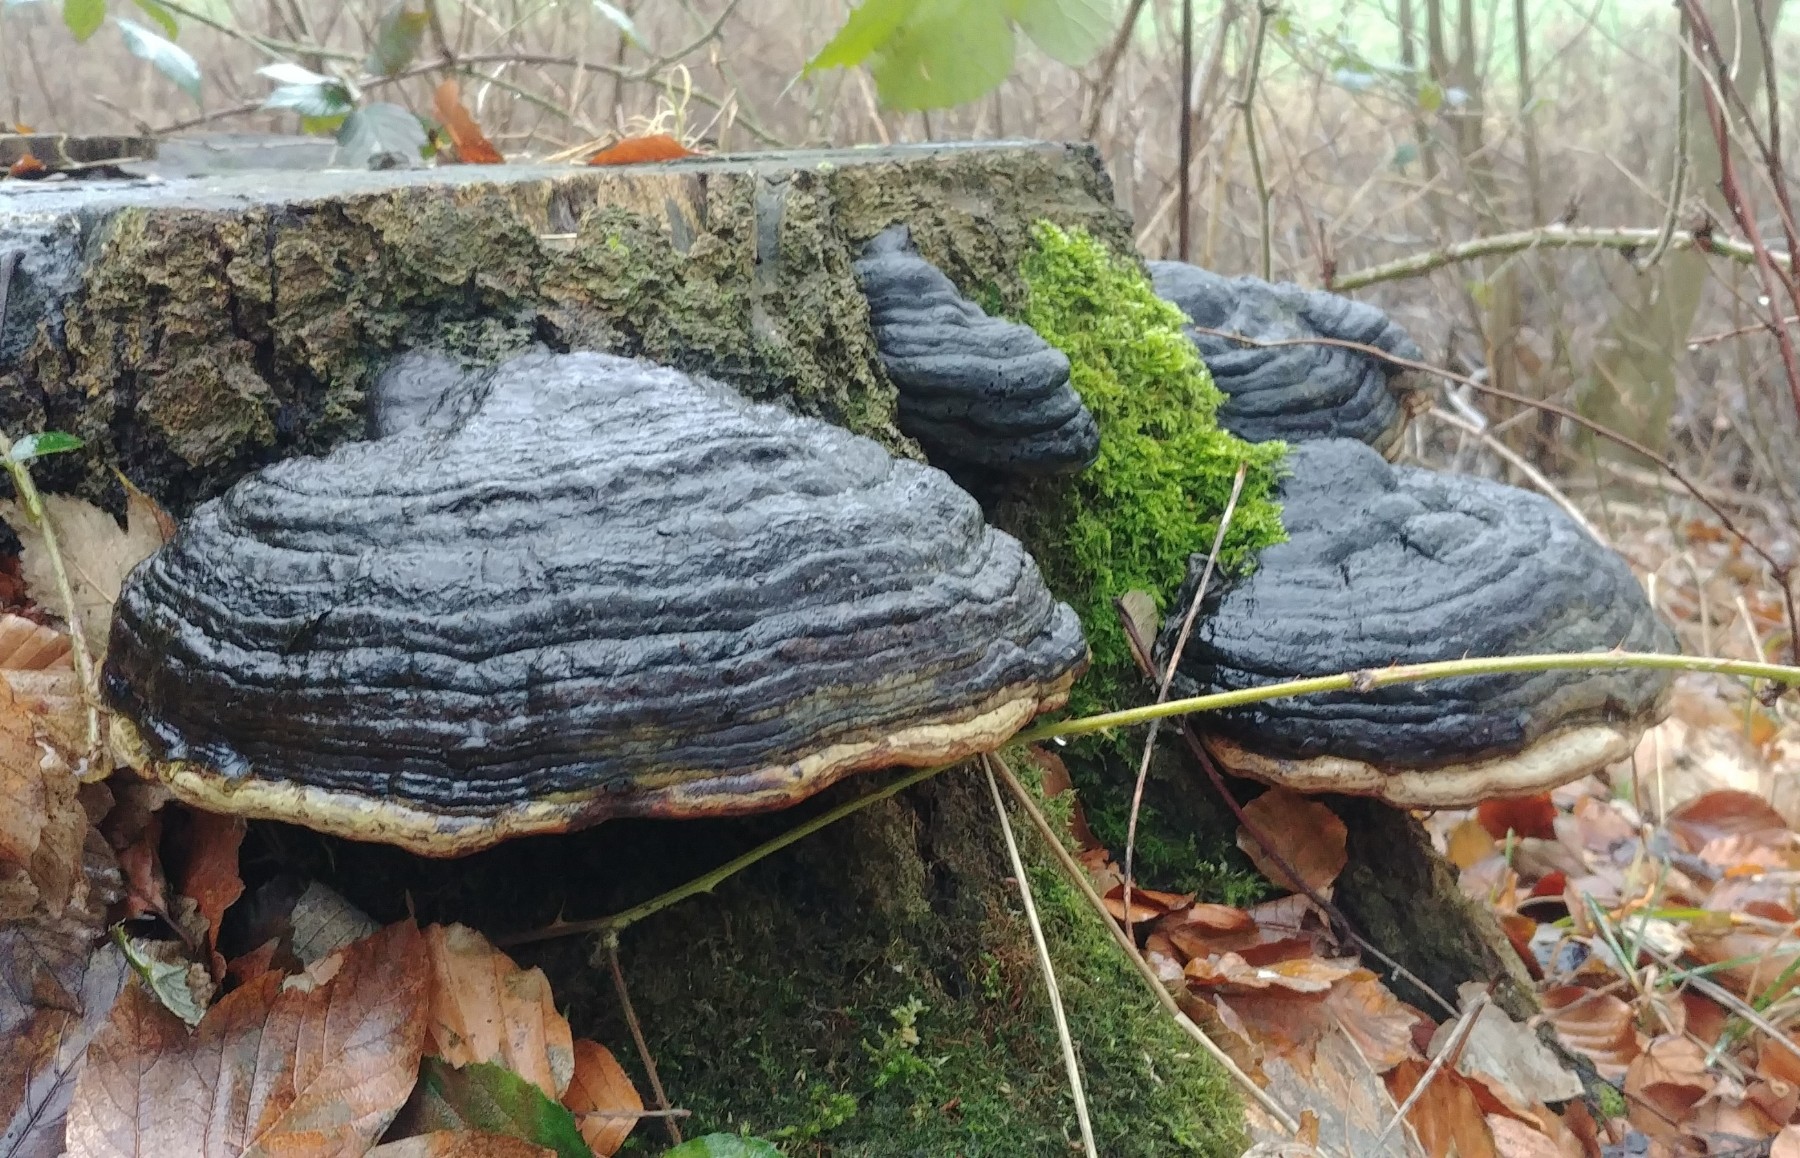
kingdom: Fungi
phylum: Basidiomycota
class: Agaricomycetes
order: Polyporales
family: Fomitopsidaceae
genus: Fomitopsis
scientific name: Fomitopsis pinicola
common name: randbæltet hovporesvamp
